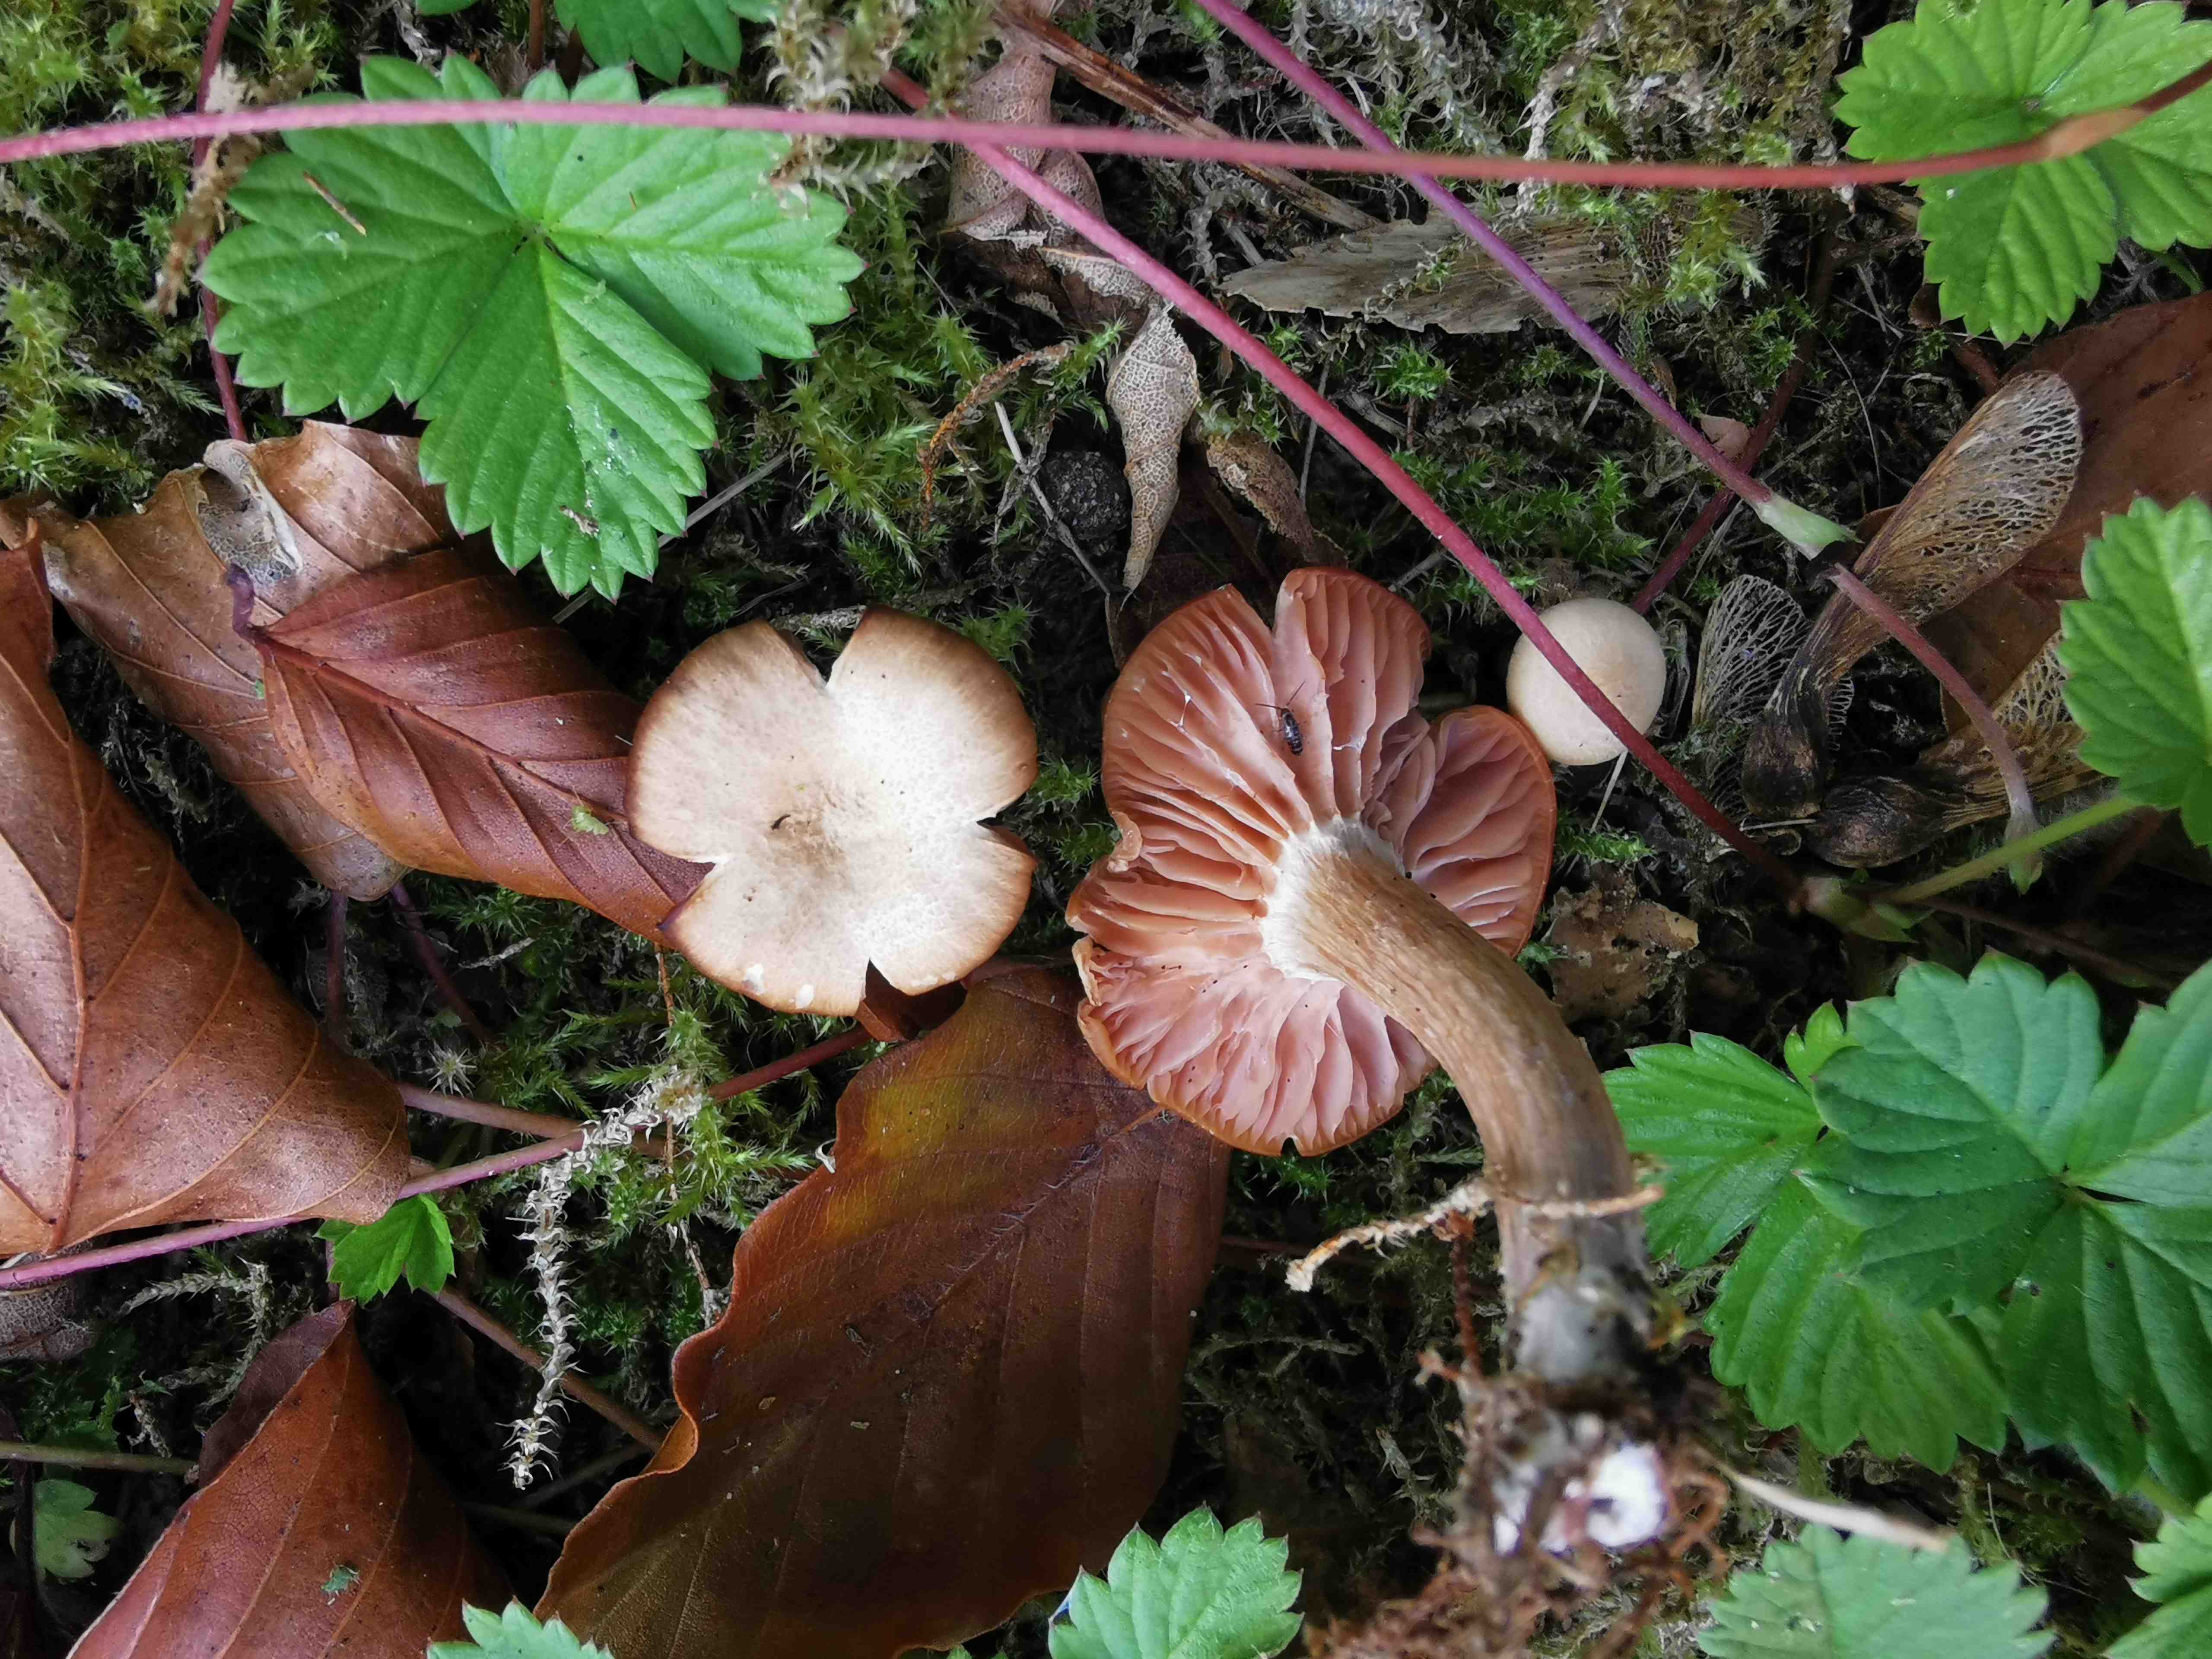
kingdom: Fungi
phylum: Basidiomycota
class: Agaricomycetes
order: Agaricales
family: Hydnangiaceae
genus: Laccaria
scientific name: Laccaria laccata
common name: rød ametysthat
